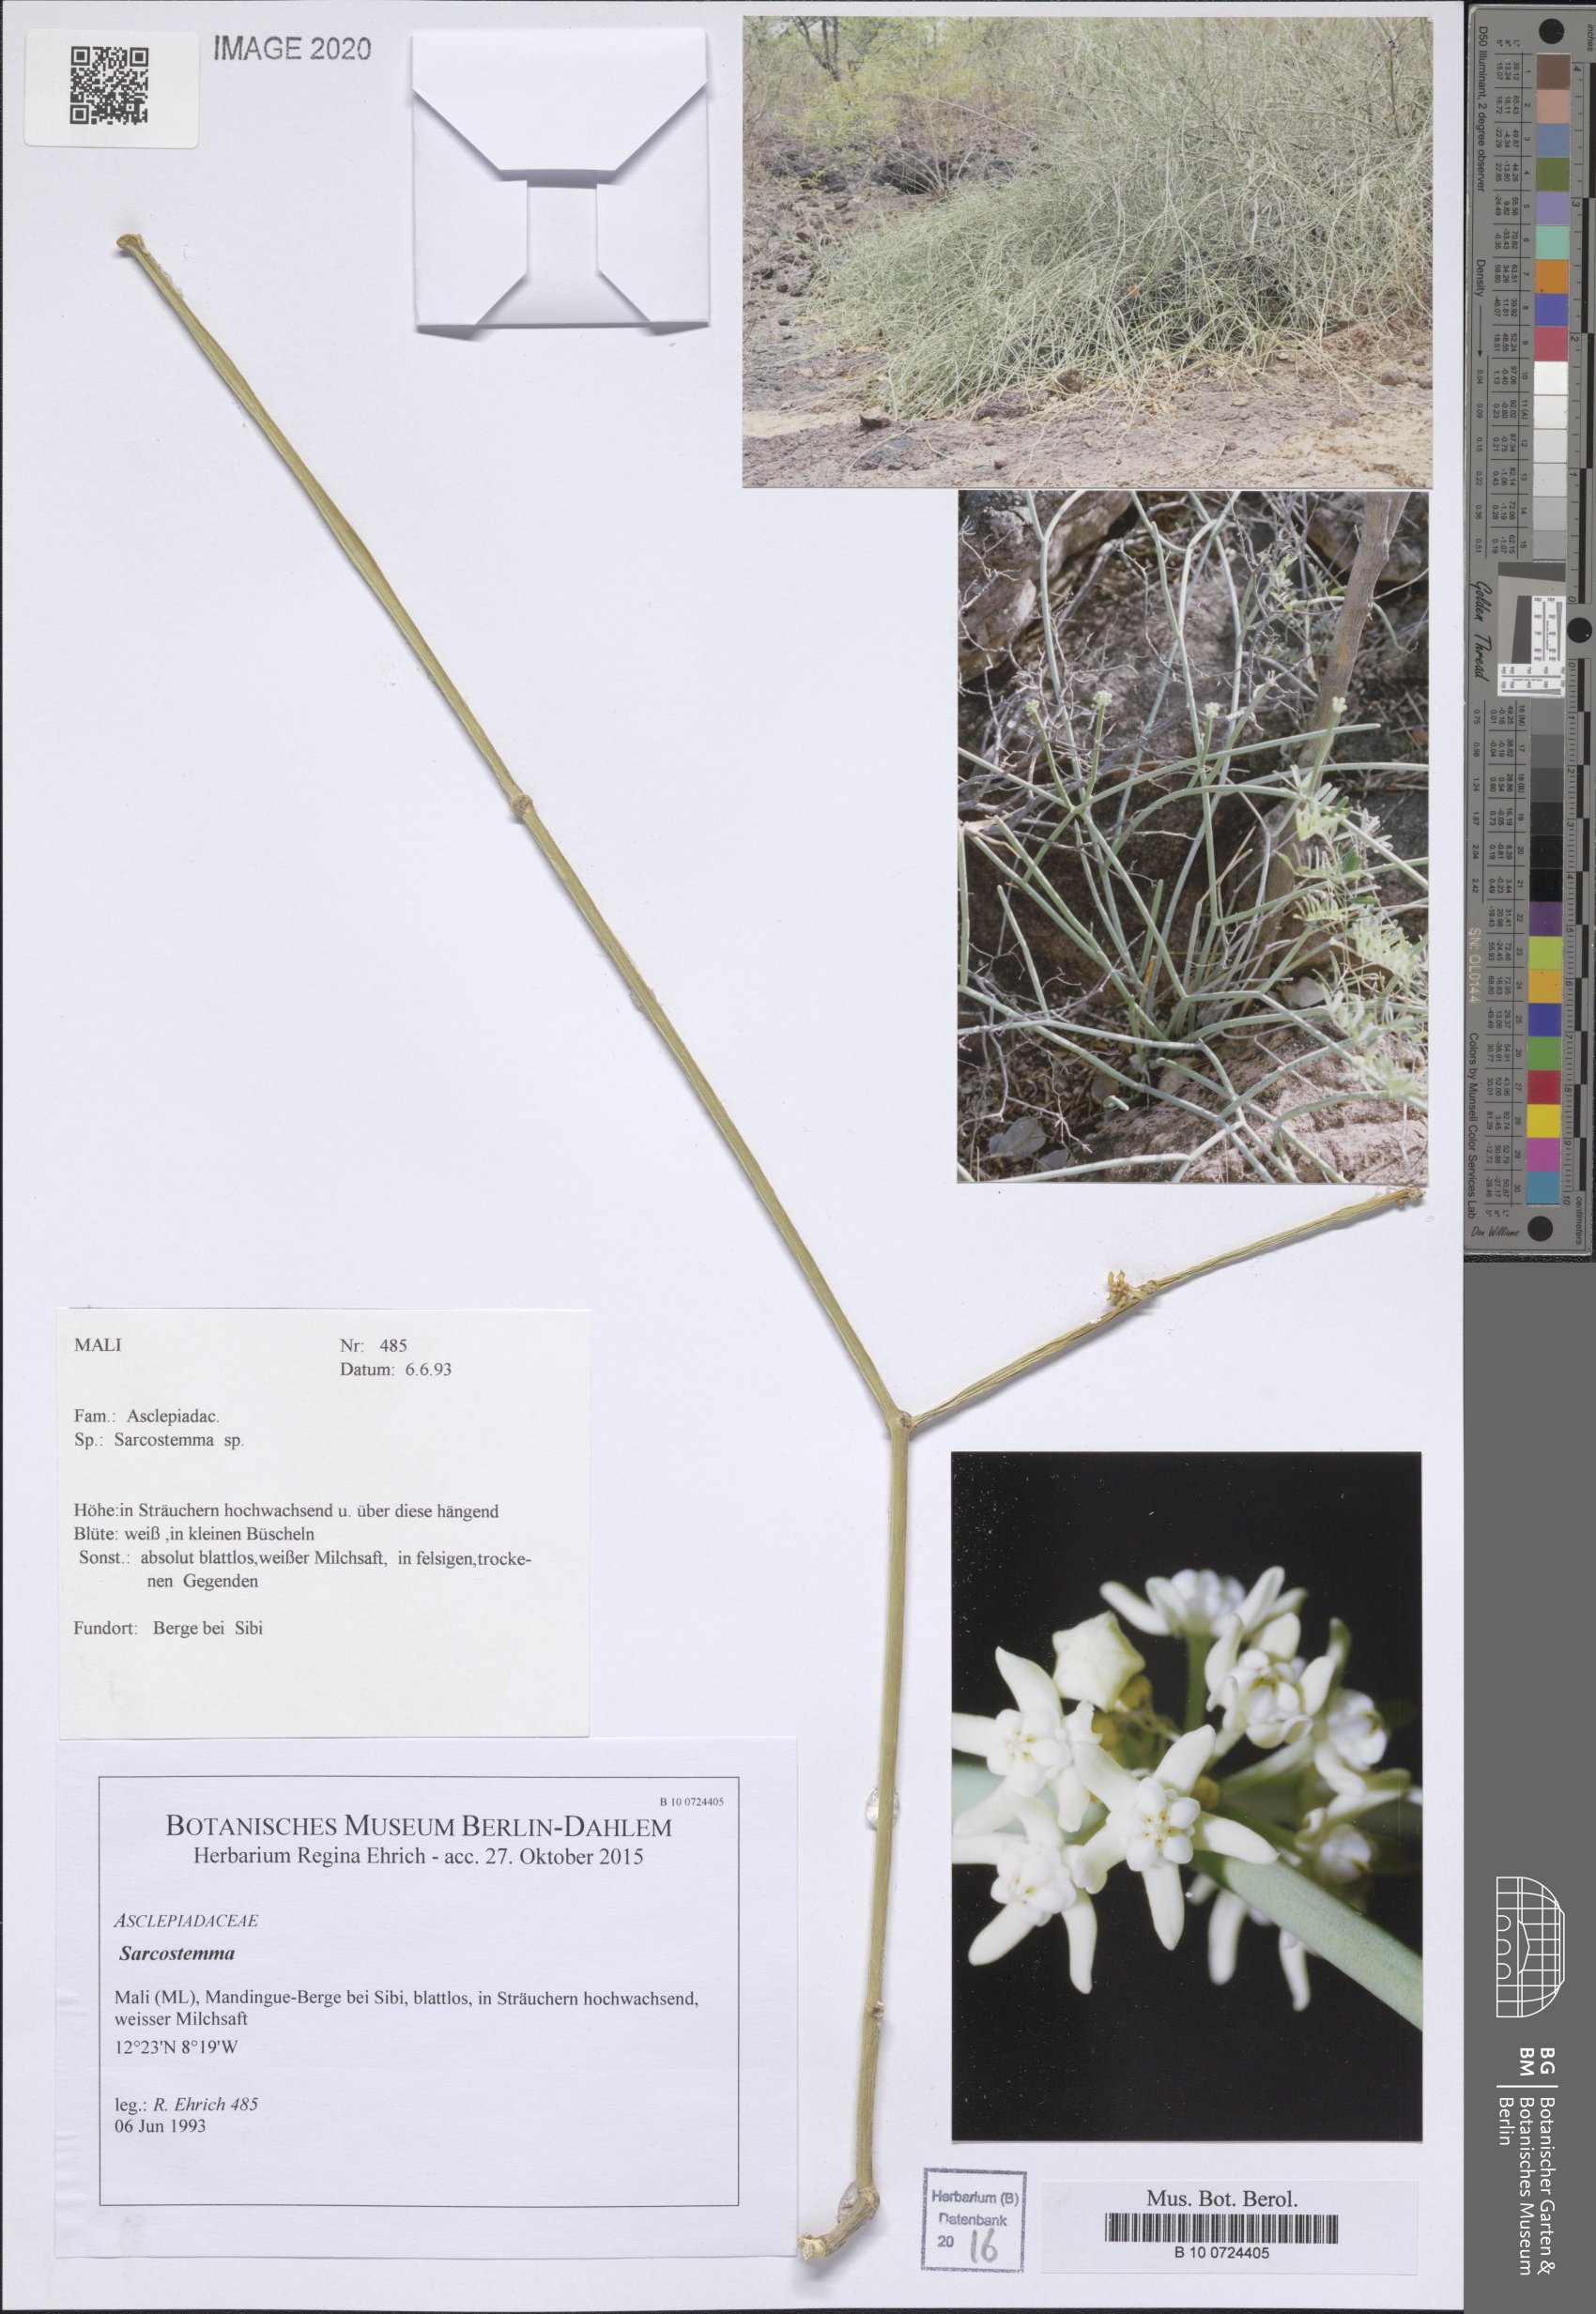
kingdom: Plantae
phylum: Tracheophyta
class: Magnoliopsida
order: Gentianales
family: Apocynaceae
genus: Cynanchum
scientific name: Cynanchum
